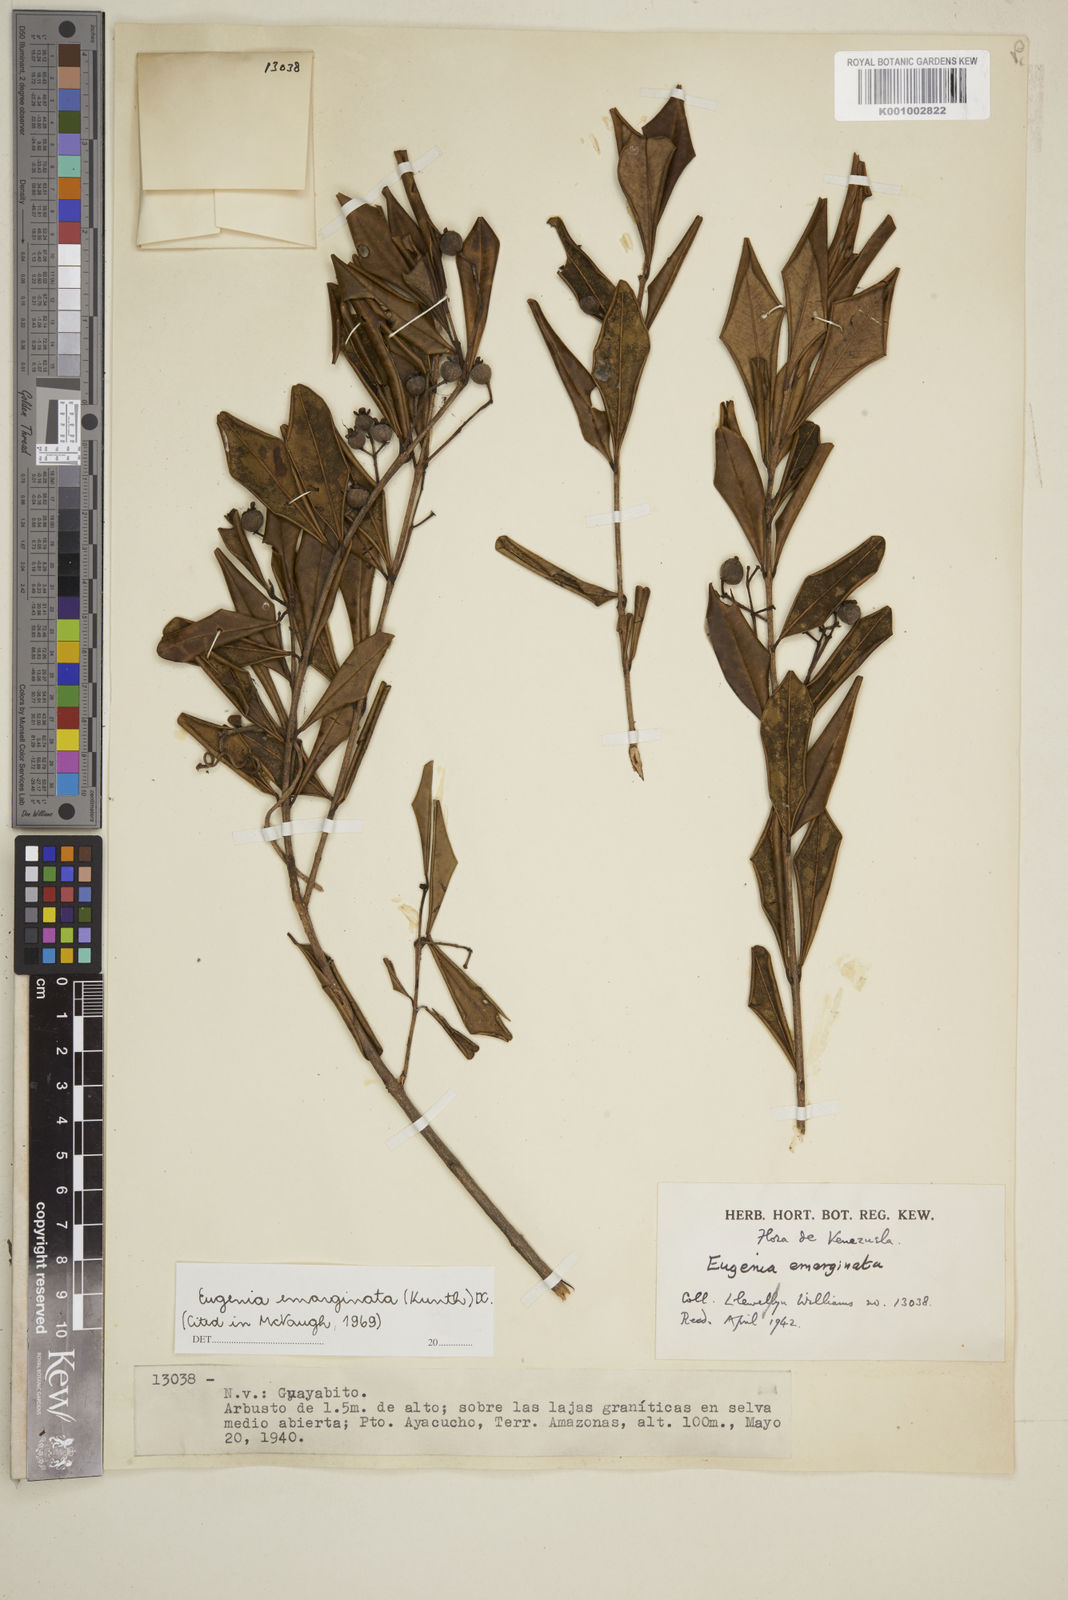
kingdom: Plantae
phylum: Tracheophyta
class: Magnoliopsida
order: Myrtales
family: Myrtaceae
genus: Eugenia
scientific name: Eugenia emarginata
